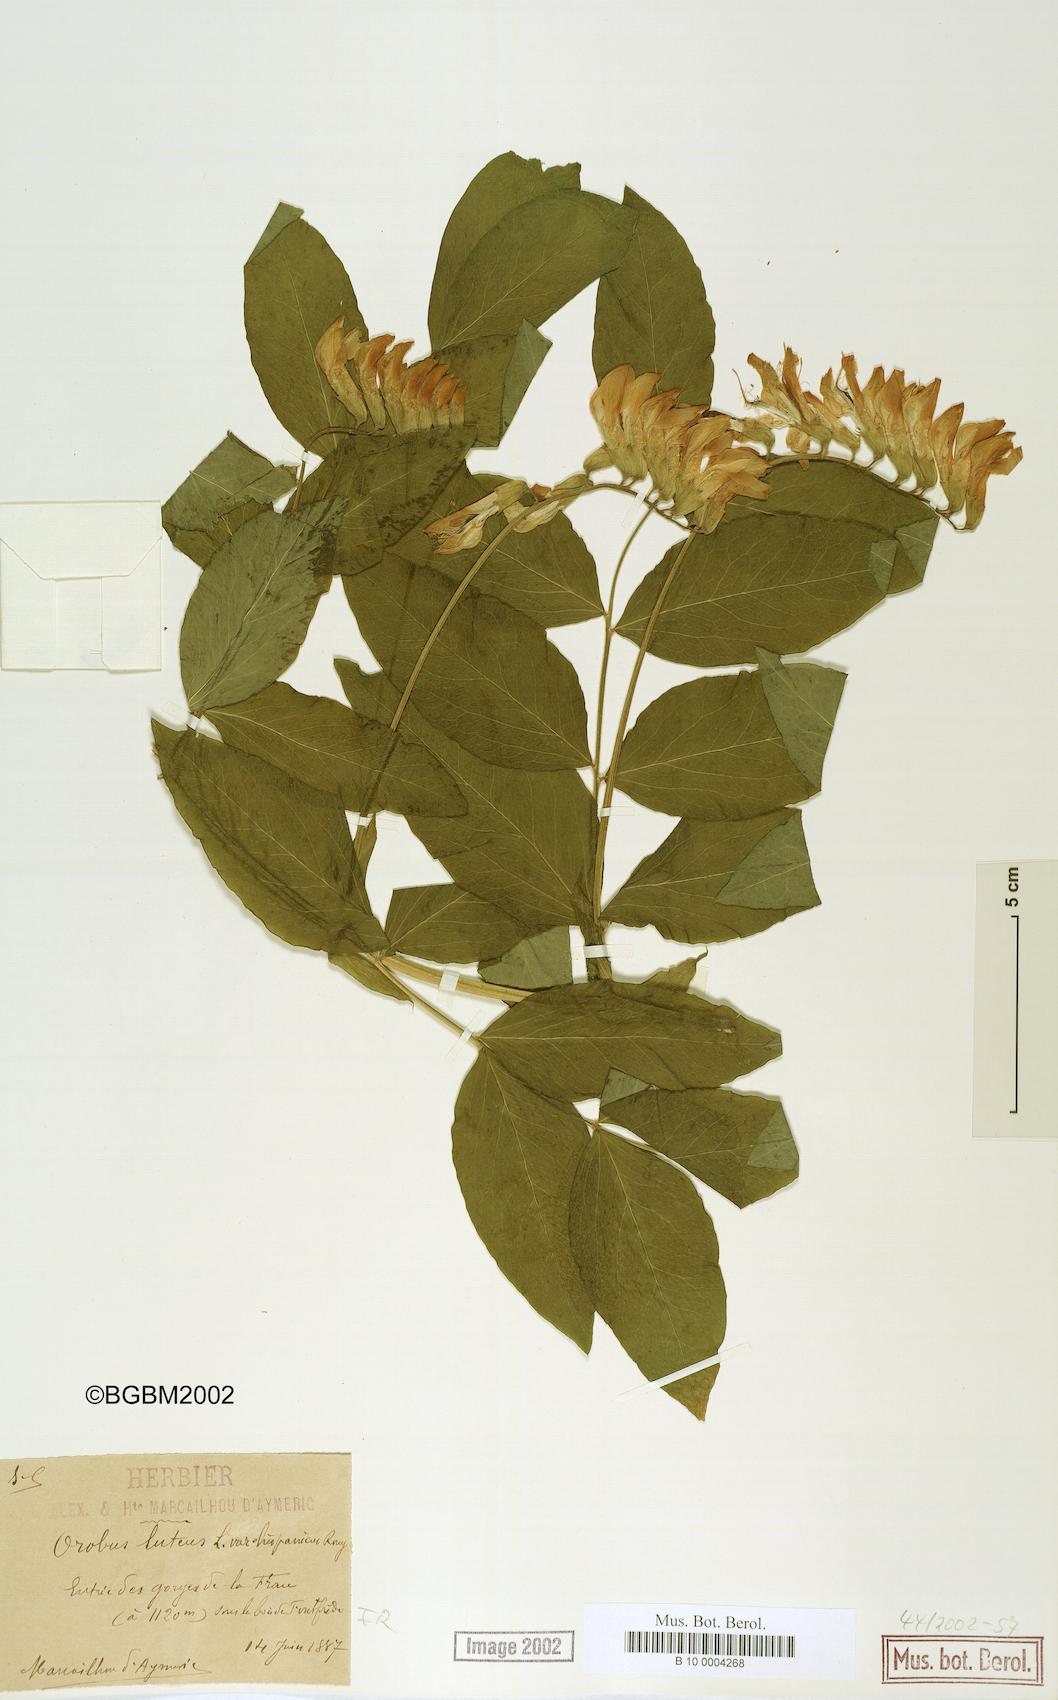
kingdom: Plantae
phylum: Tracheophyta
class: Magnoliopsida
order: Fabales
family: Fabaceae
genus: Lathyrus
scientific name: Lathyrus gmelinii
